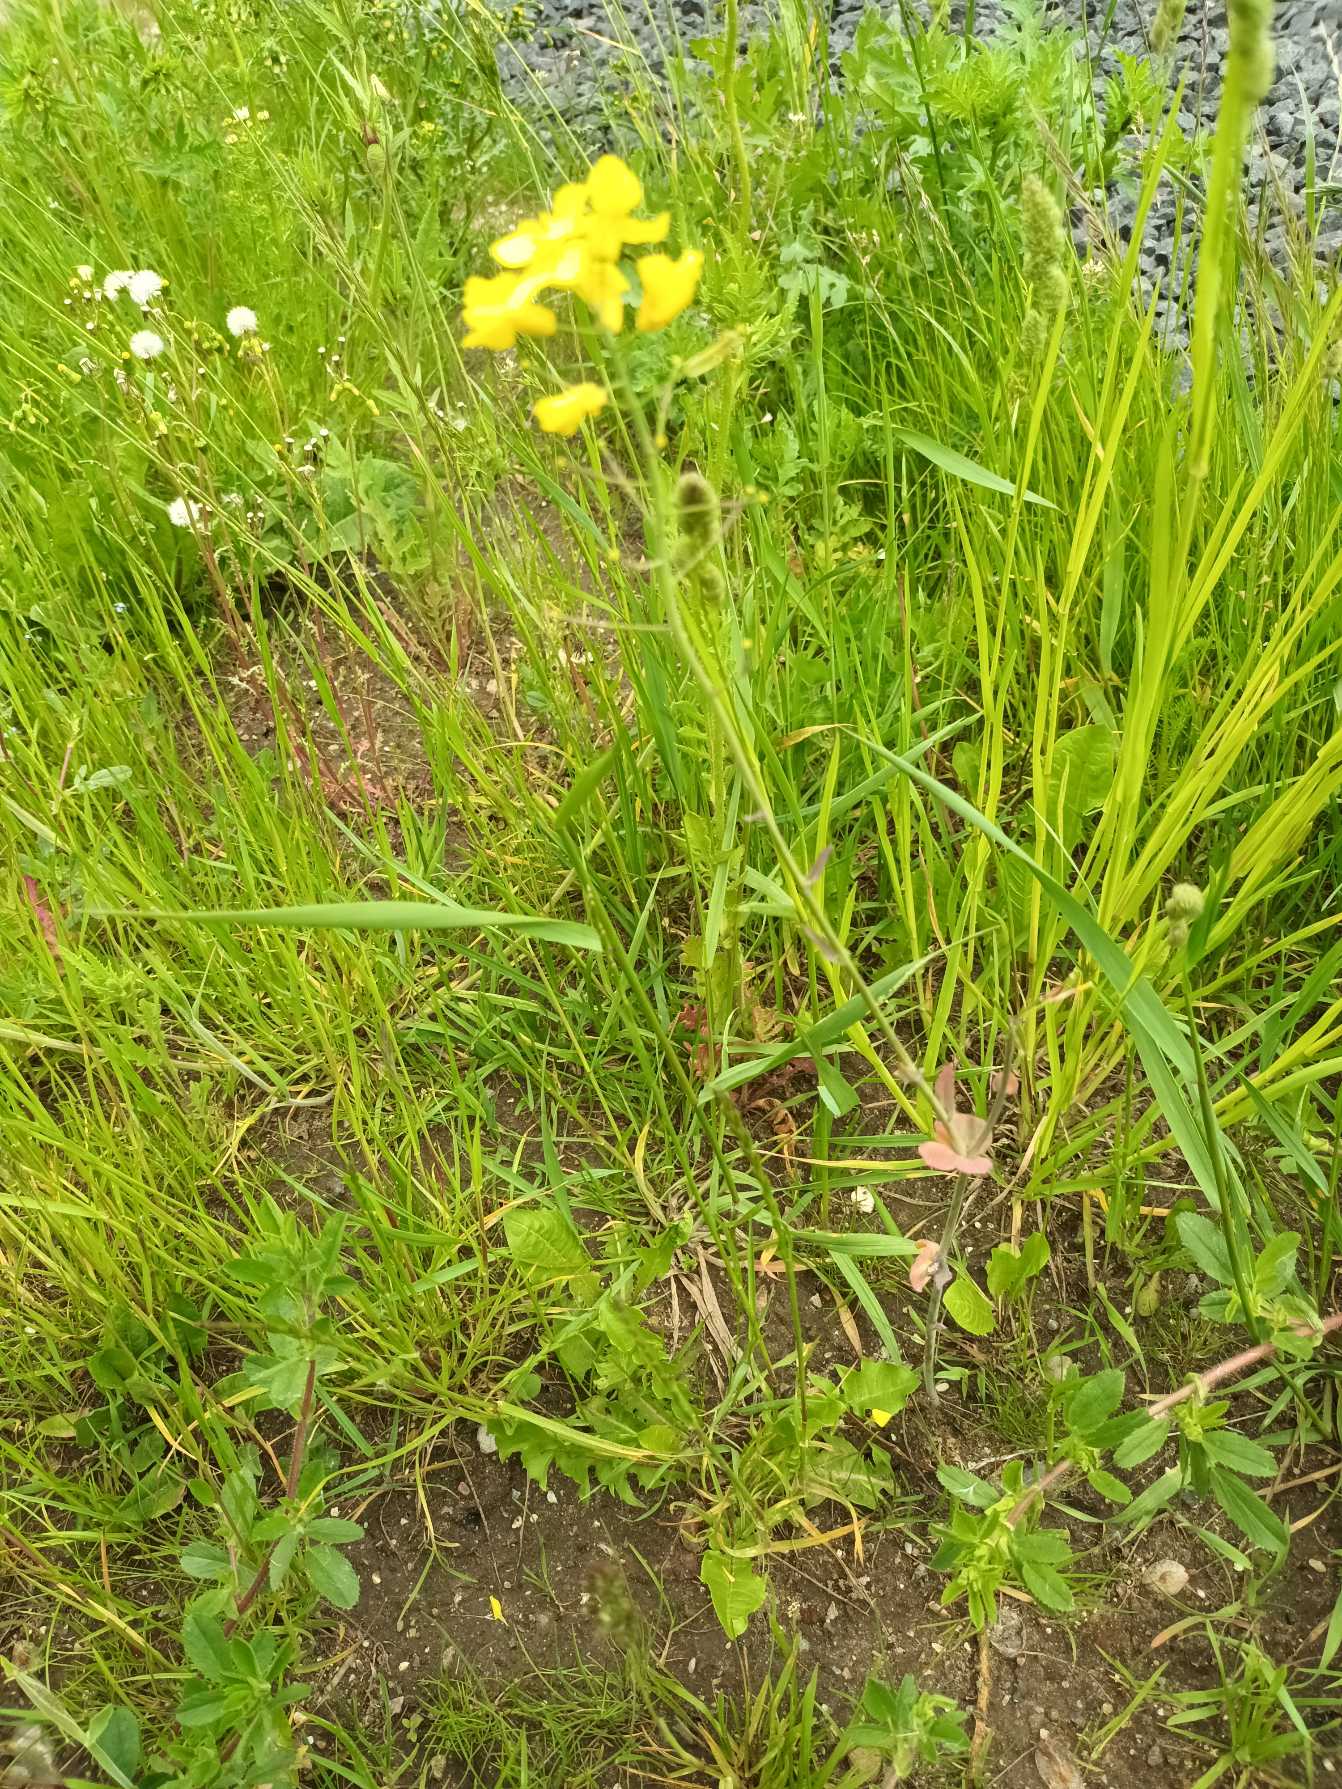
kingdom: Plantae
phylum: Tracheophyta
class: Magnoliopsida
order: Brassicales
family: Brassicaceae
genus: Brassica
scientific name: Brassica rapa
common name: Ager-kål
